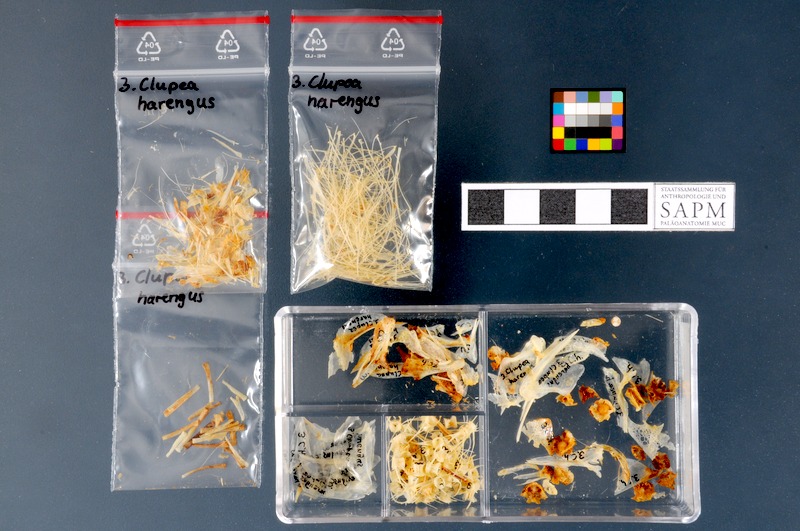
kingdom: Animalia
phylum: Chordata
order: Clupeiformes
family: Clupeidae
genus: Clupea
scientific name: Clupea harengus
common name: Herring
